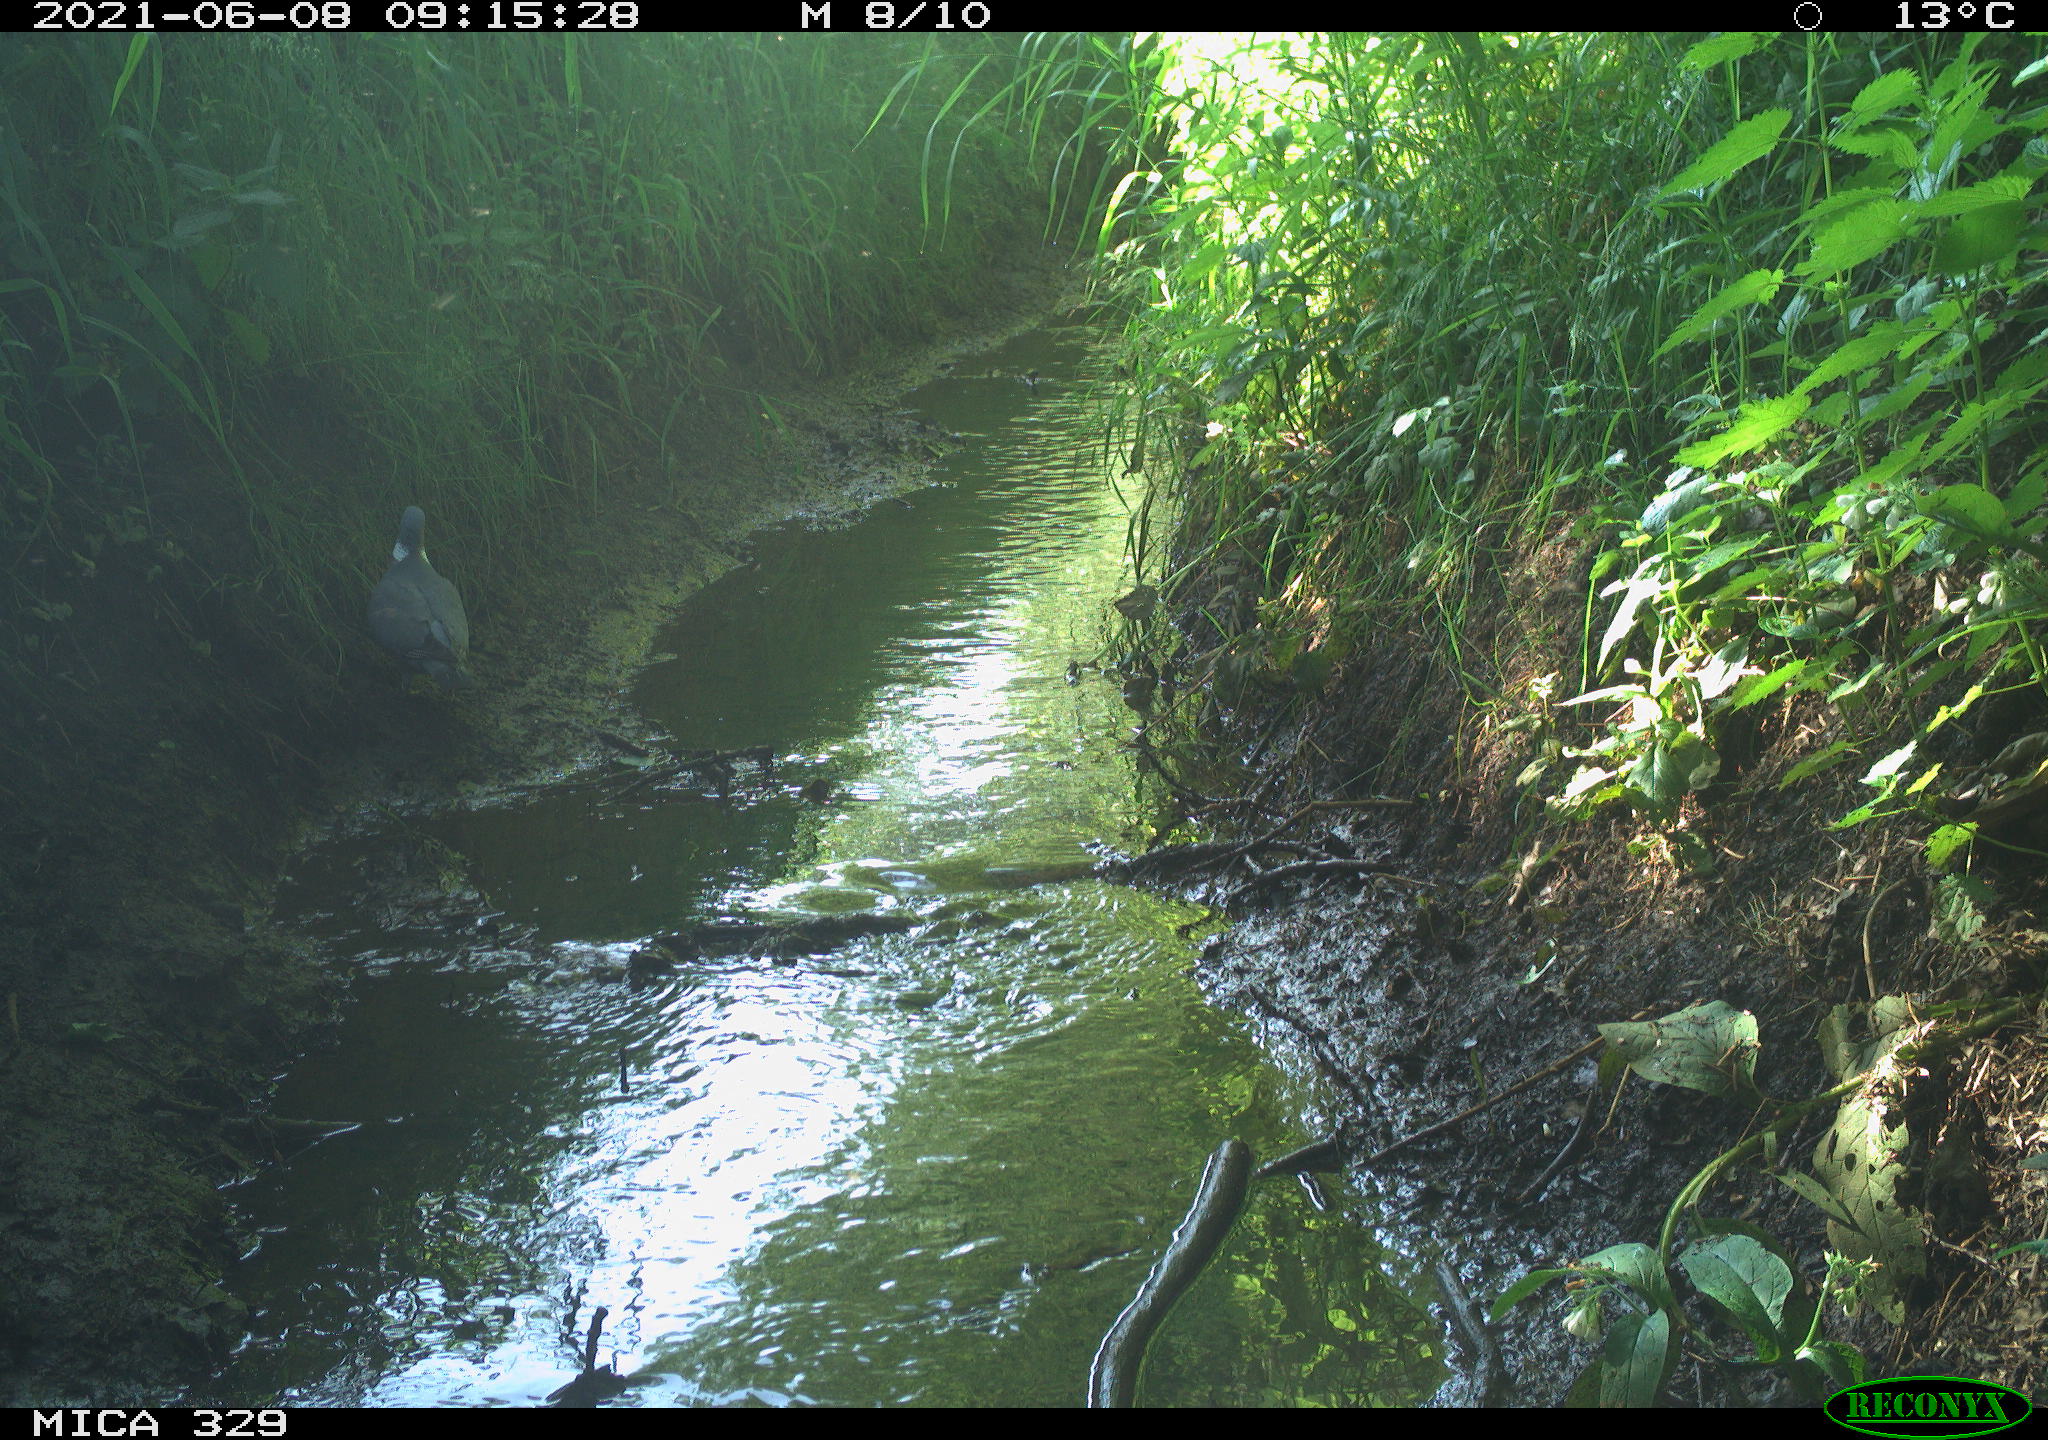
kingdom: Animalia
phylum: Chordata
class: Aves
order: Columbiformes
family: Columbidae
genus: Columba
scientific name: Columba palumbus
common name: Common wood pigeon
